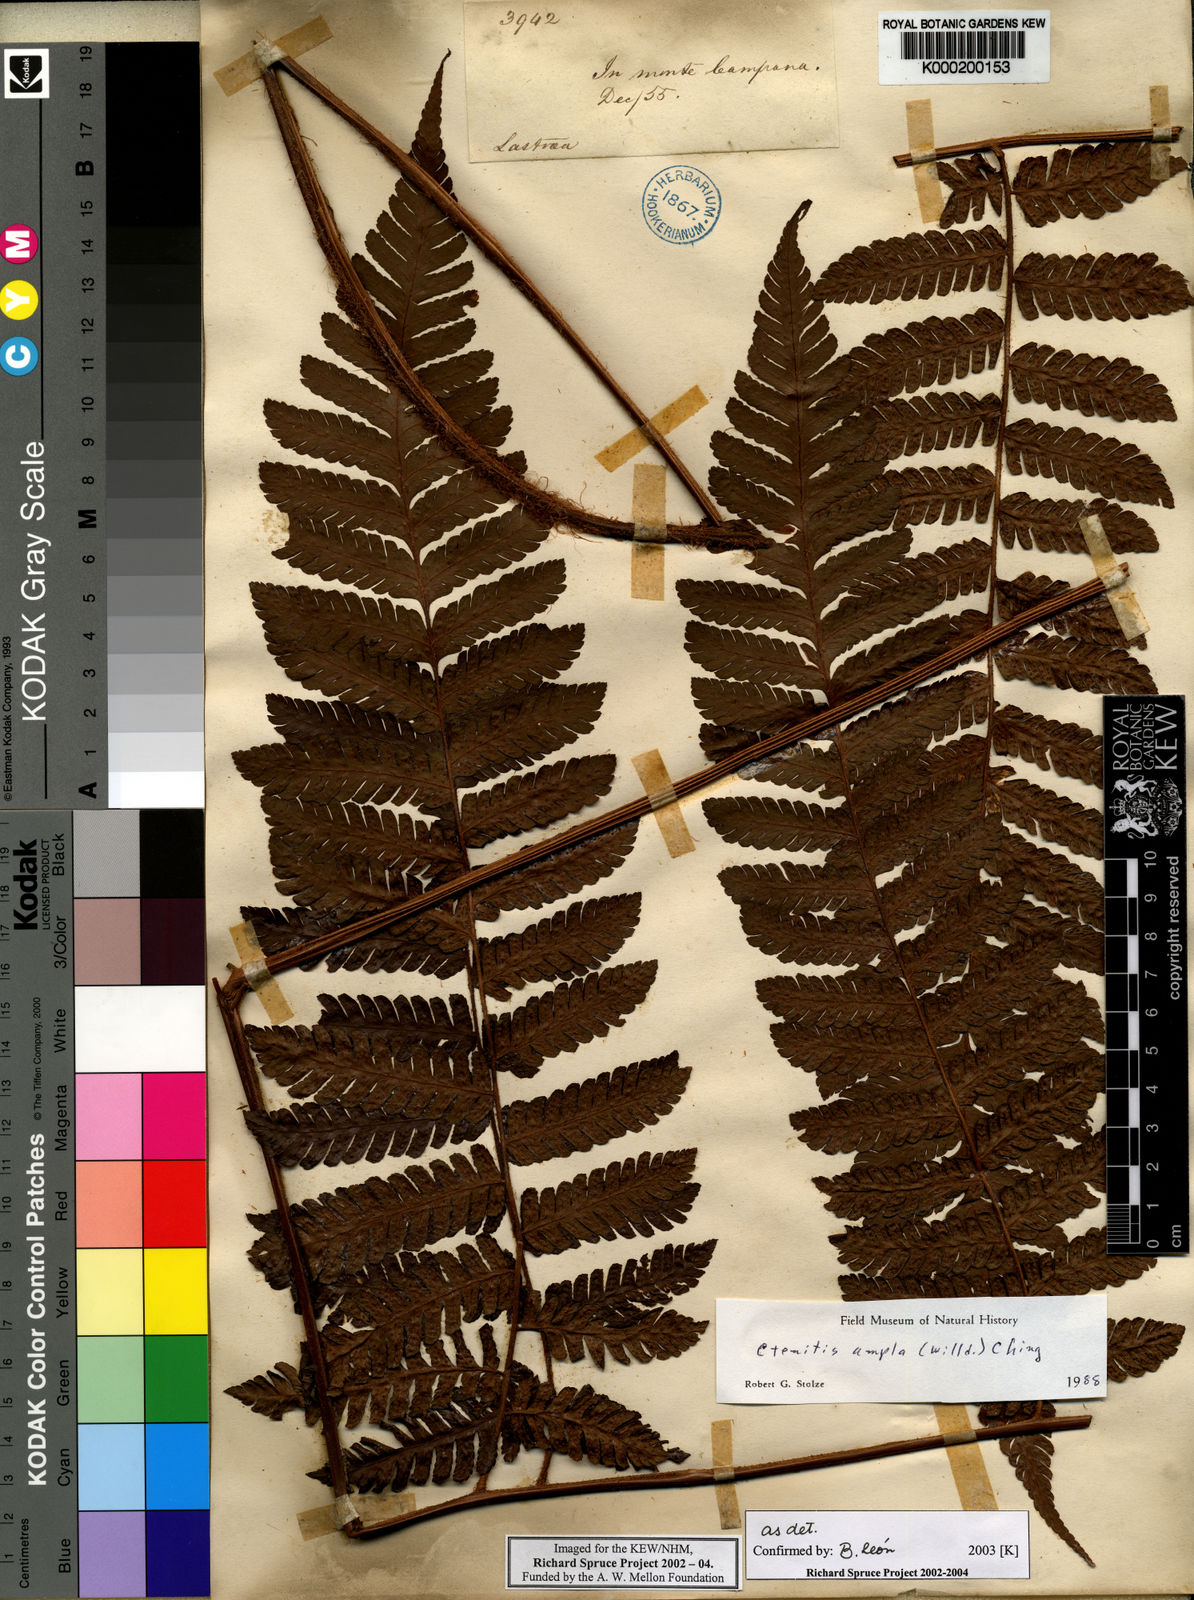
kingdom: Plantae
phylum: Tracheophyta
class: Polypodiopsida
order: Polypodiales
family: Dryopteridaceae
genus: Ctenitis
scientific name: Ctenitis sloanei
